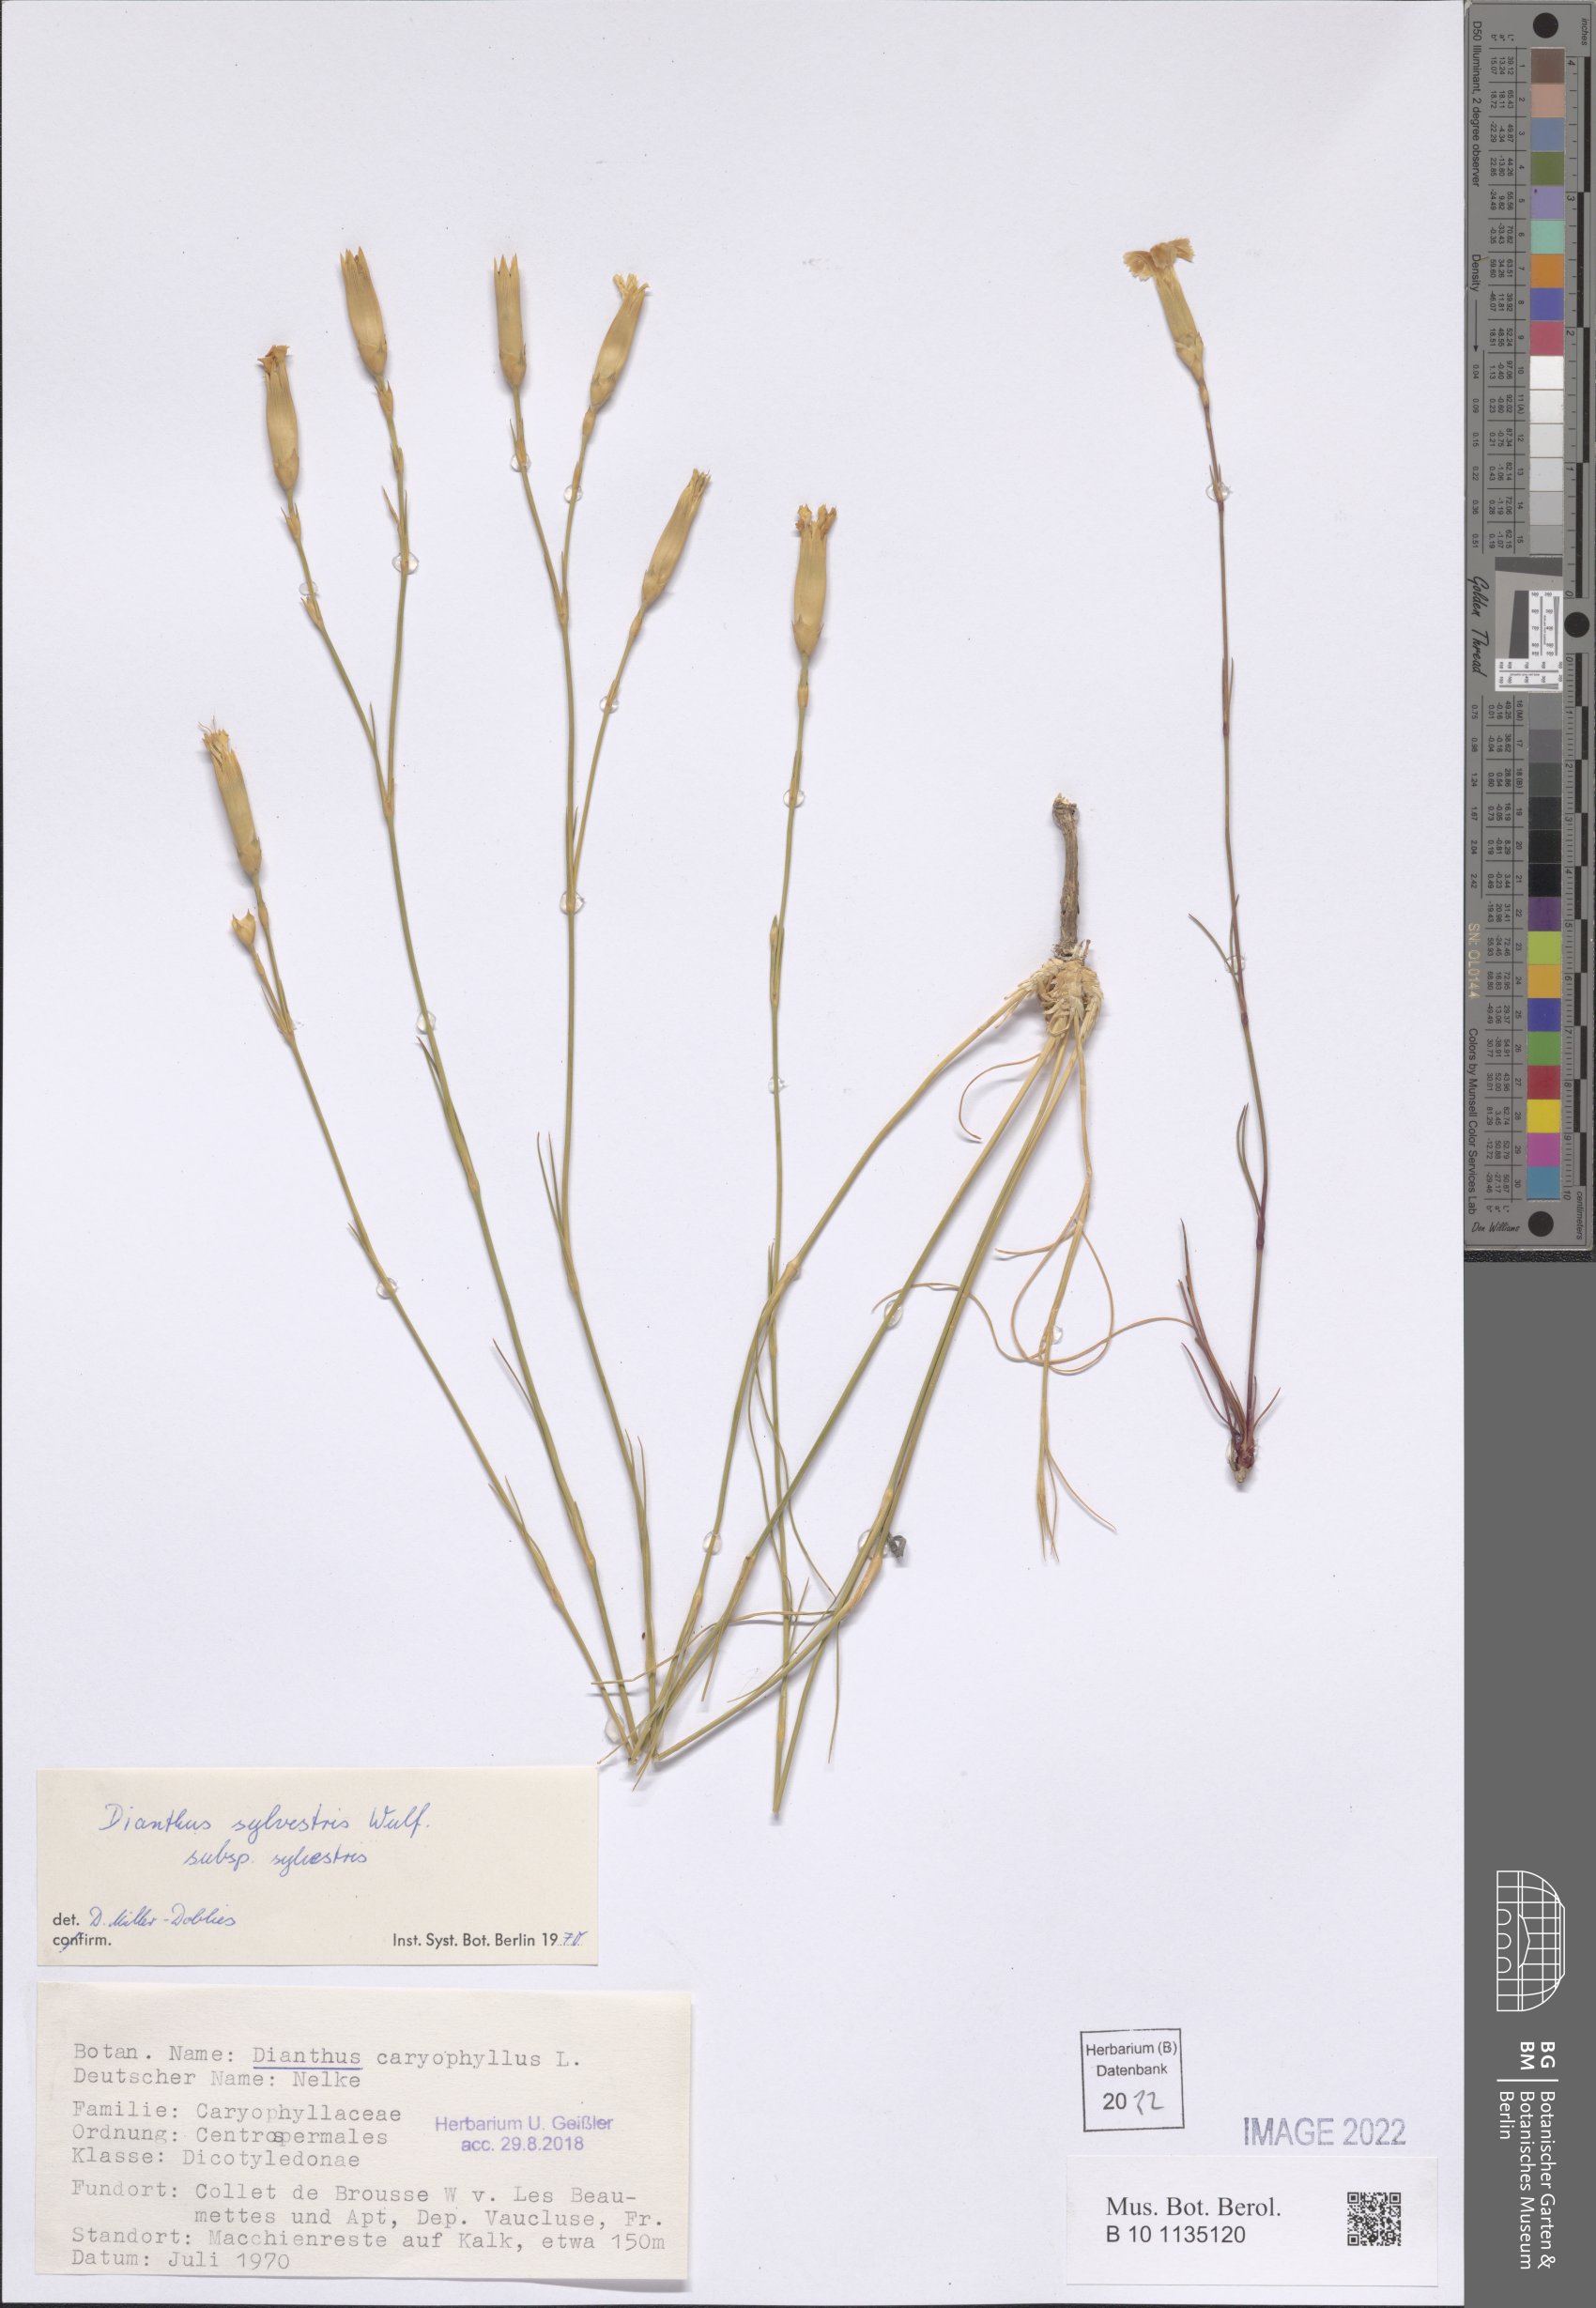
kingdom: Plantae
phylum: Tracheophyta
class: Magnoliopsida
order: Caryophyllales
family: Caryophyllaceae
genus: Dianthus
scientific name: Dianthus sylvestris
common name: Wood pink
